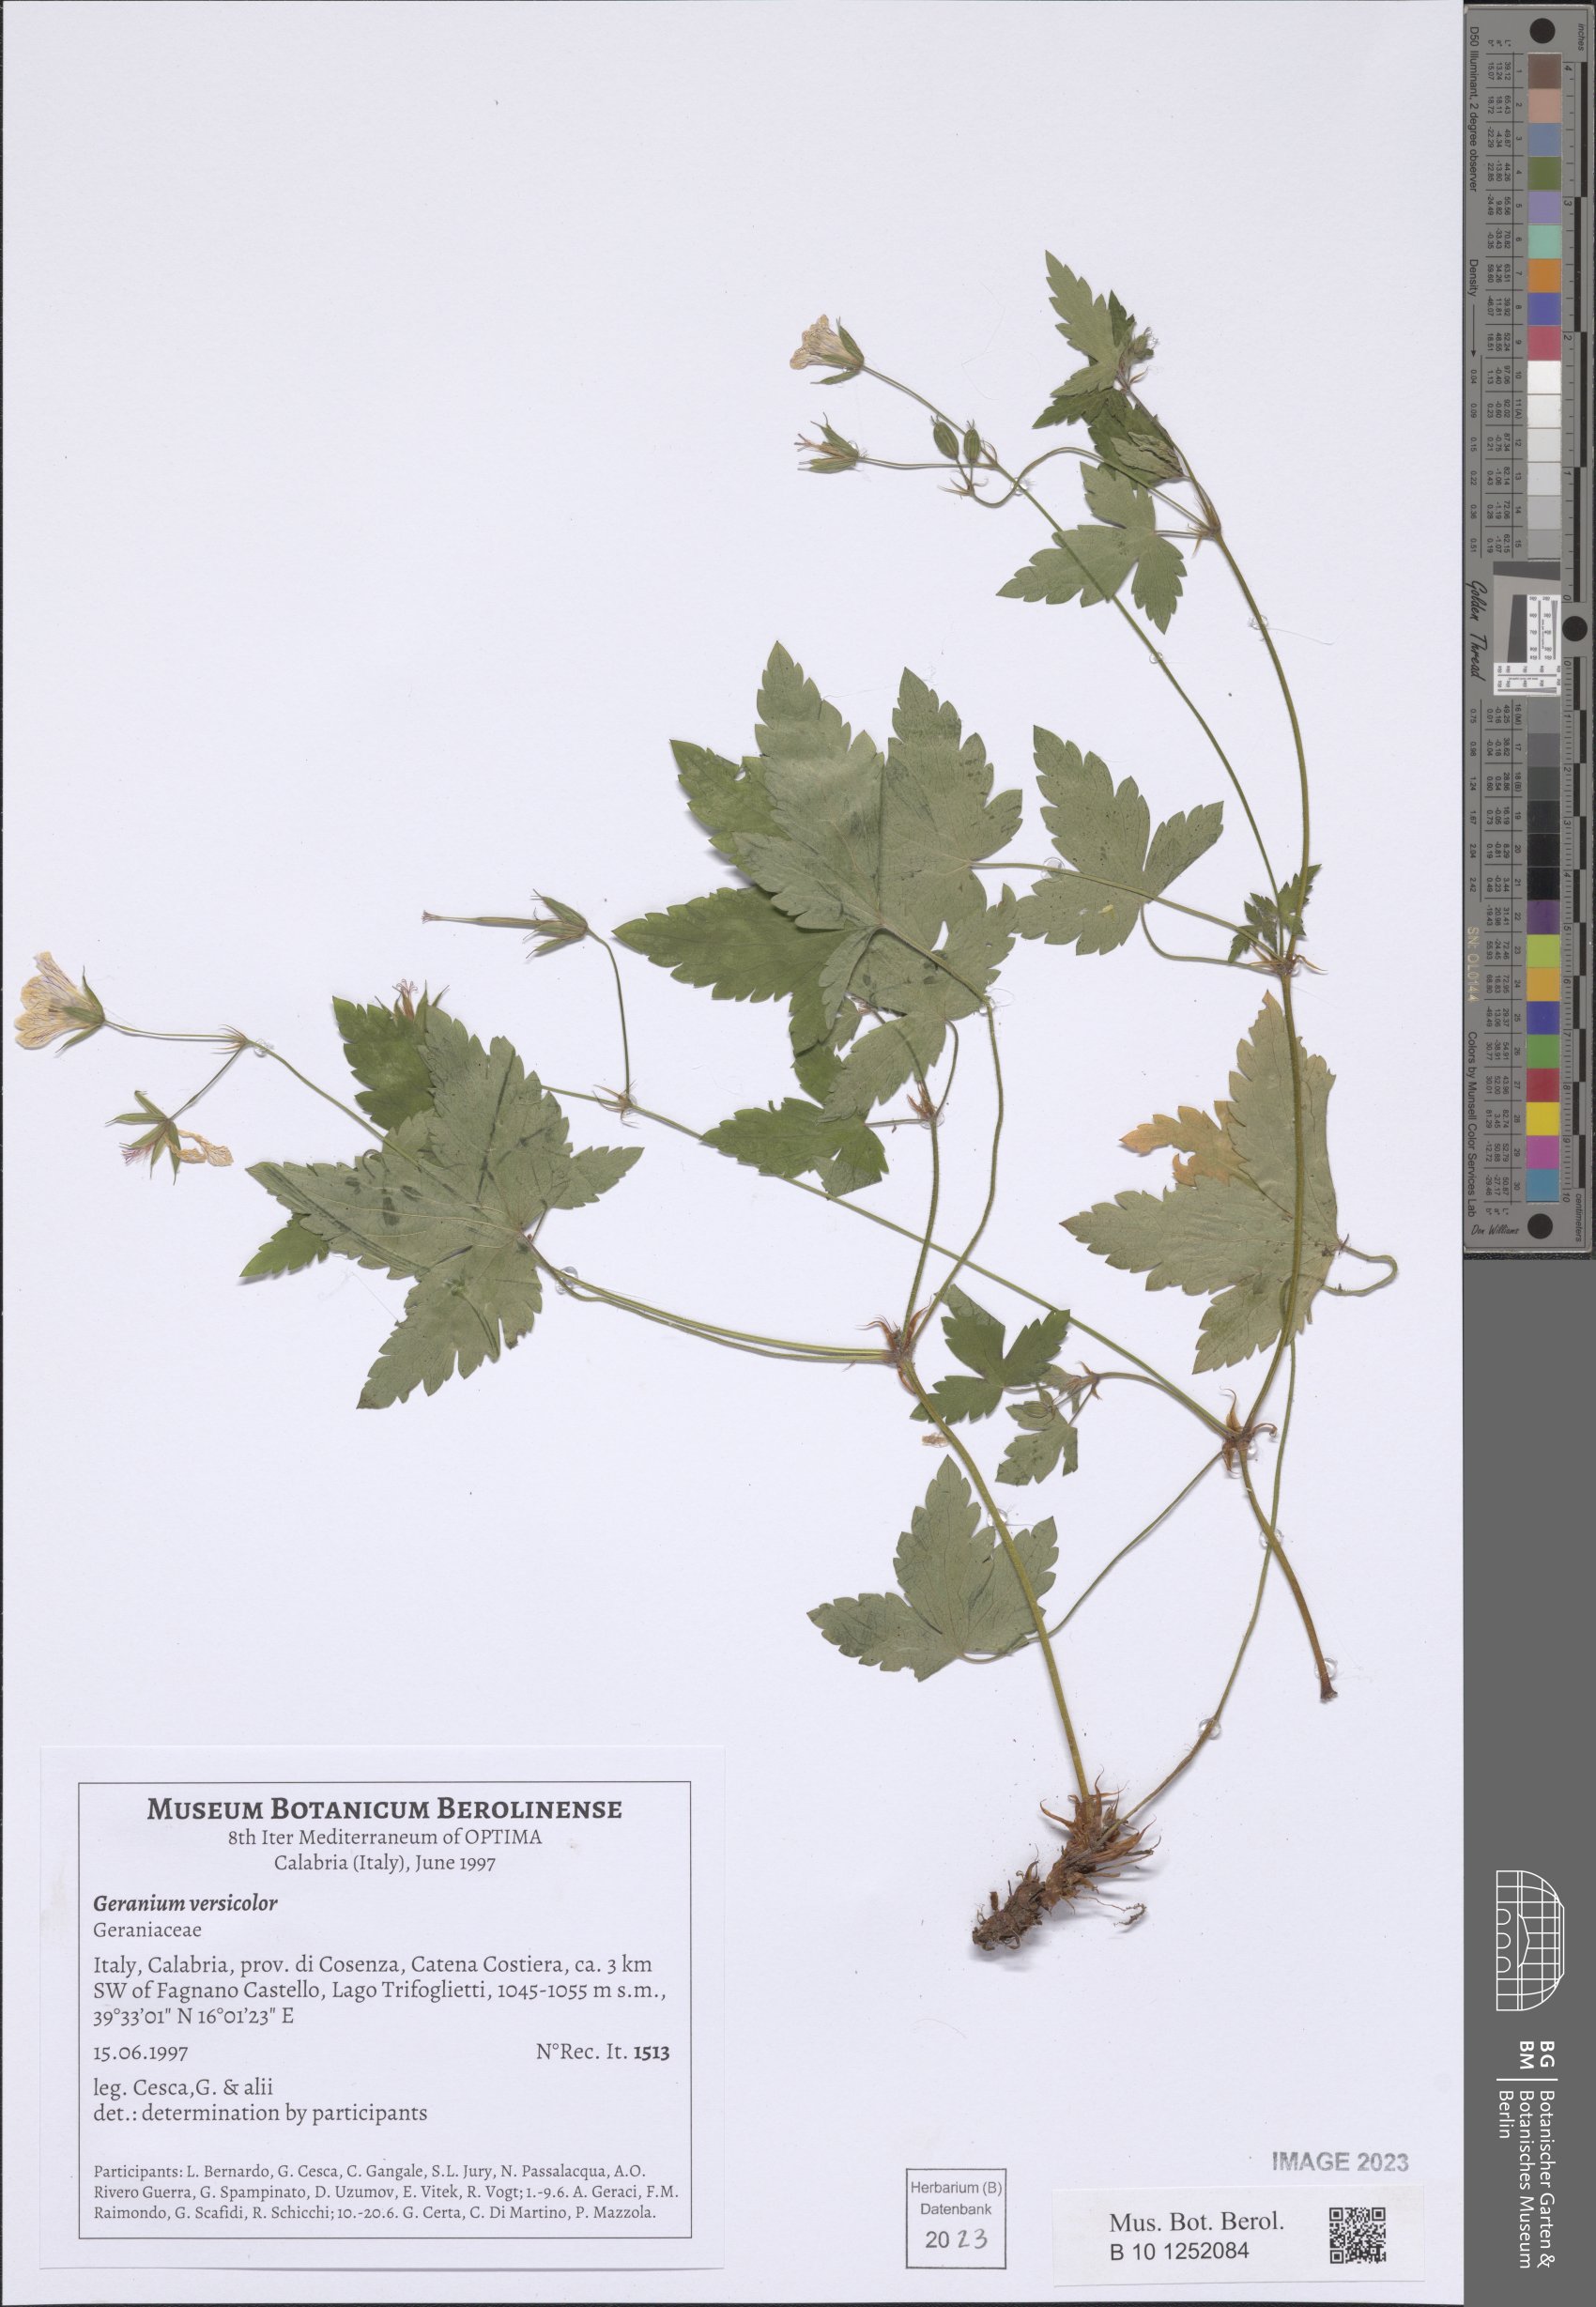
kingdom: Plantae
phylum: Tracheophyta
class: Magnoliopsida
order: Geraniales
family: Geraniaceae
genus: Geranium
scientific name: Geranium versicolor
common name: Pencilled crane's-bill
